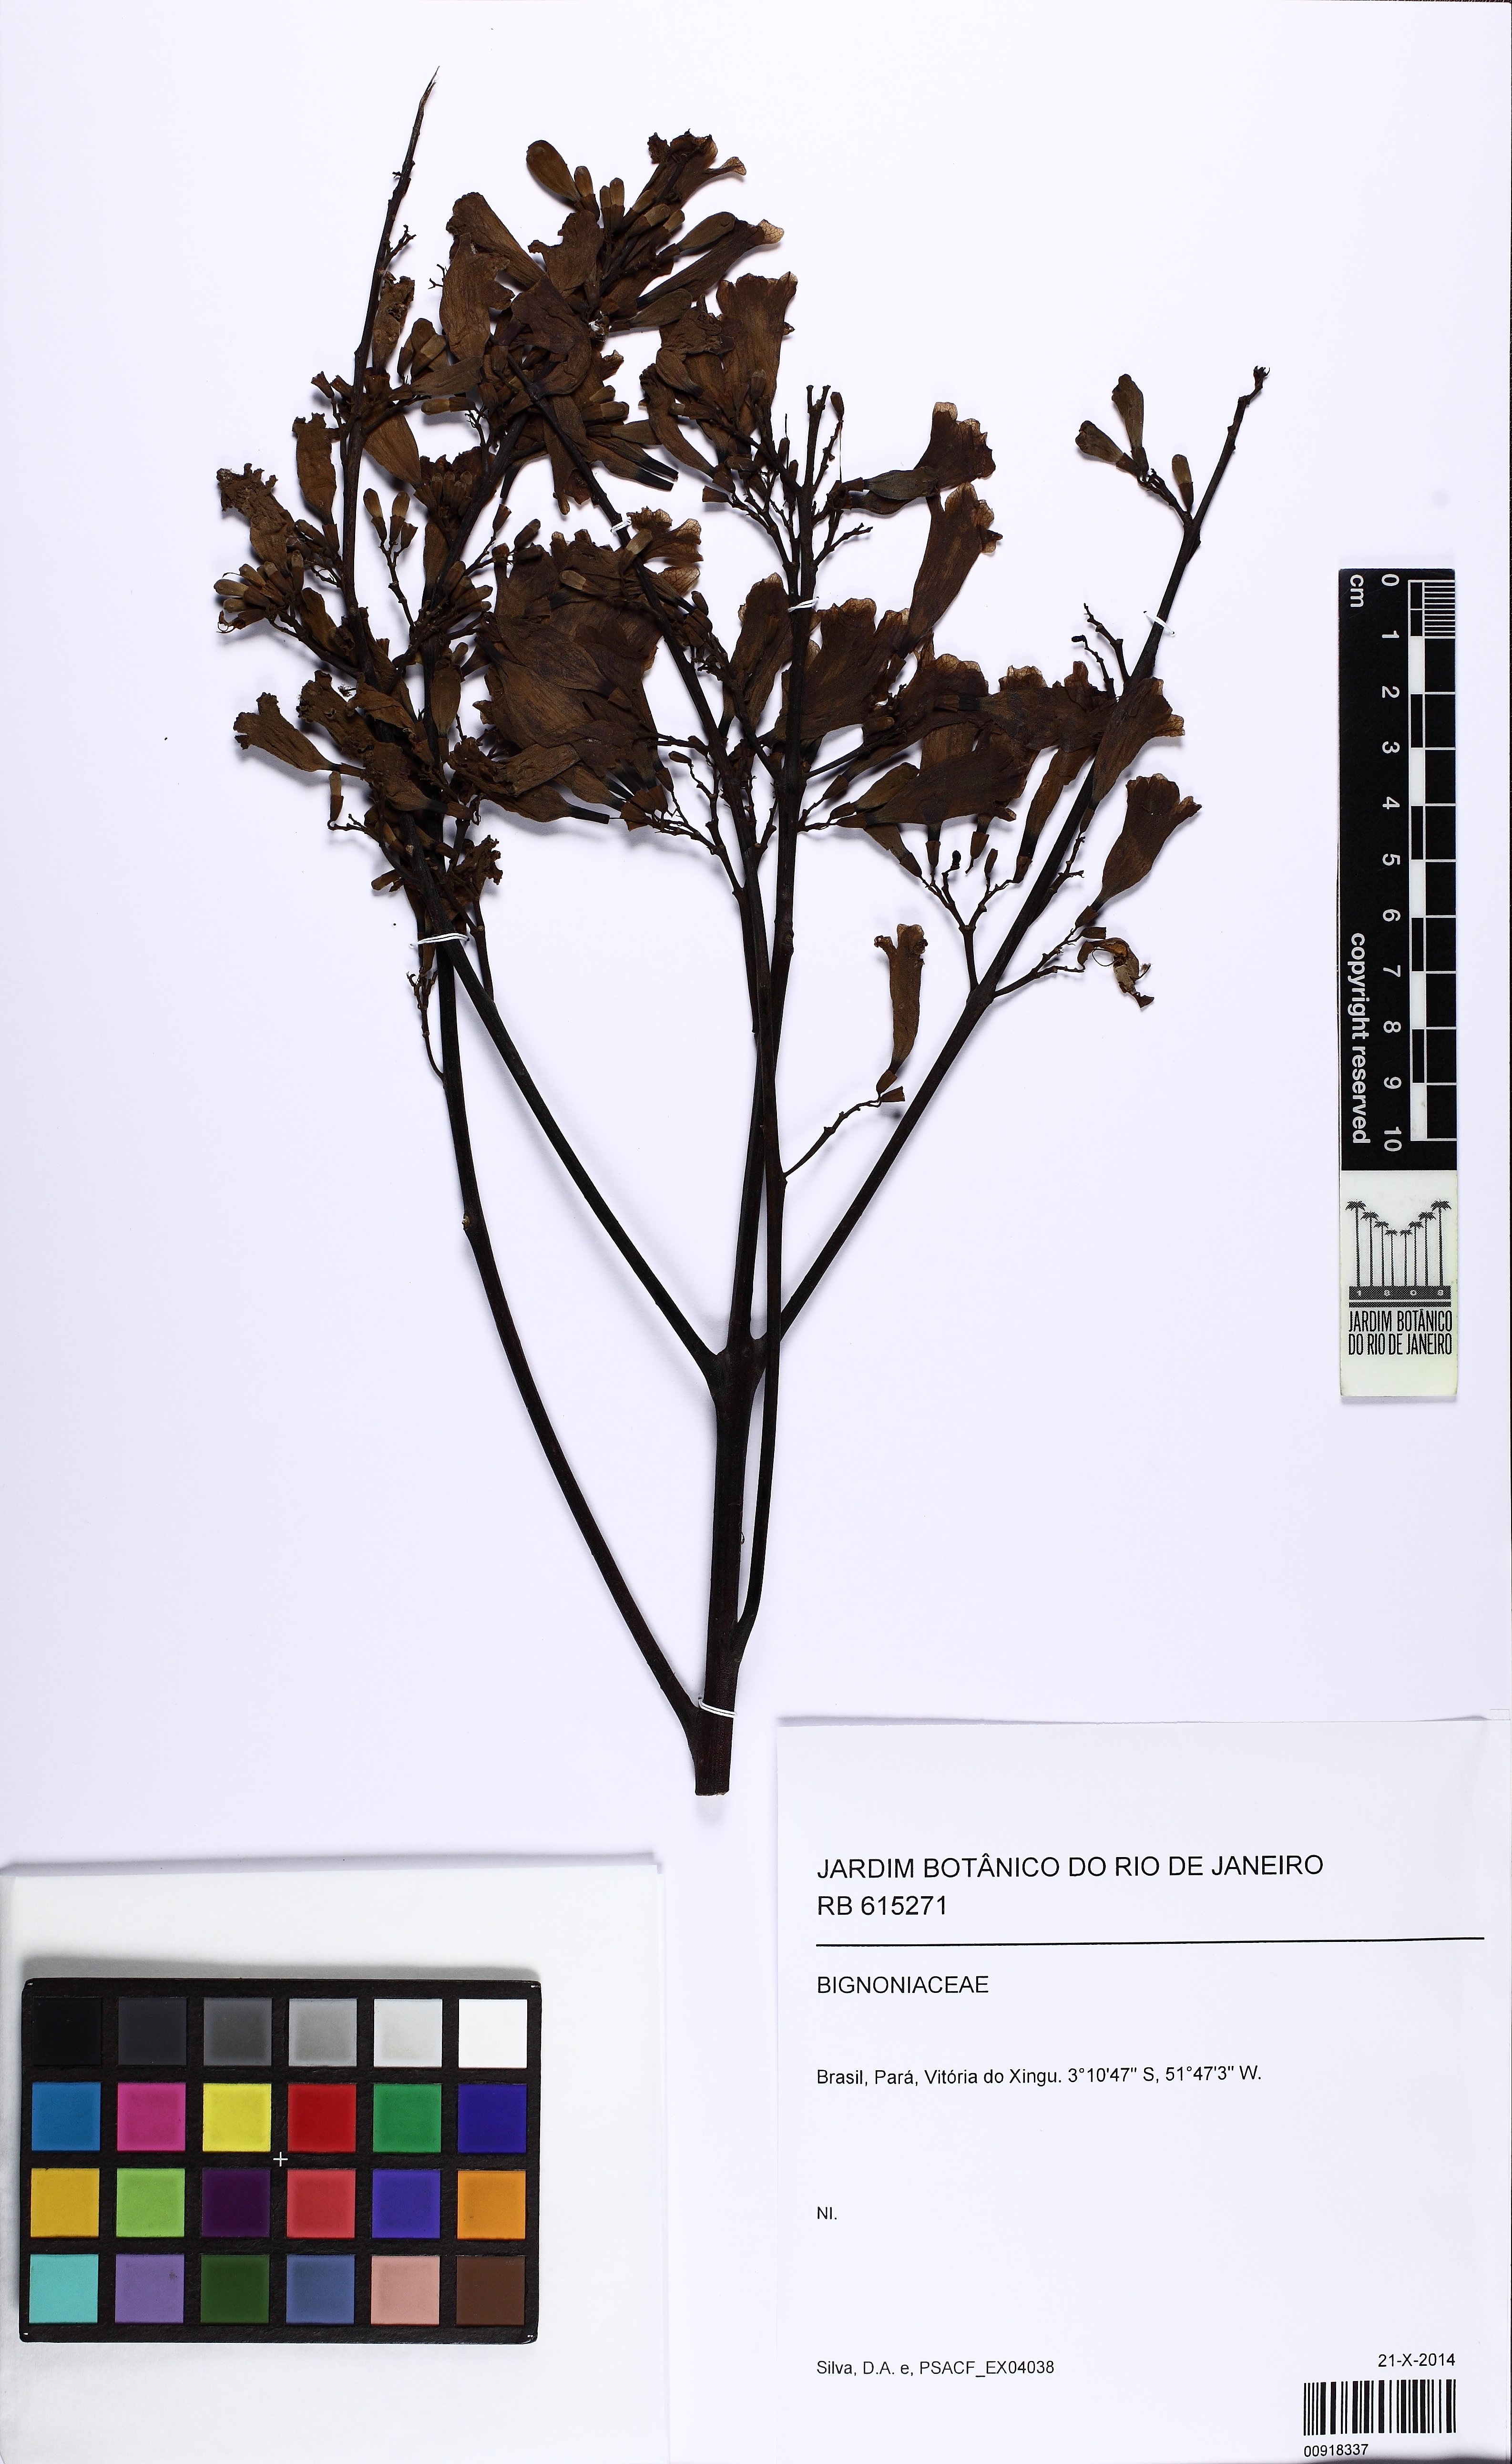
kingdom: Plantae
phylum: Tracheophyta
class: Magnoliopsida
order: Lamiales
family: Bignoniaceae
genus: Jacaranda
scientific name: Jacaranda
